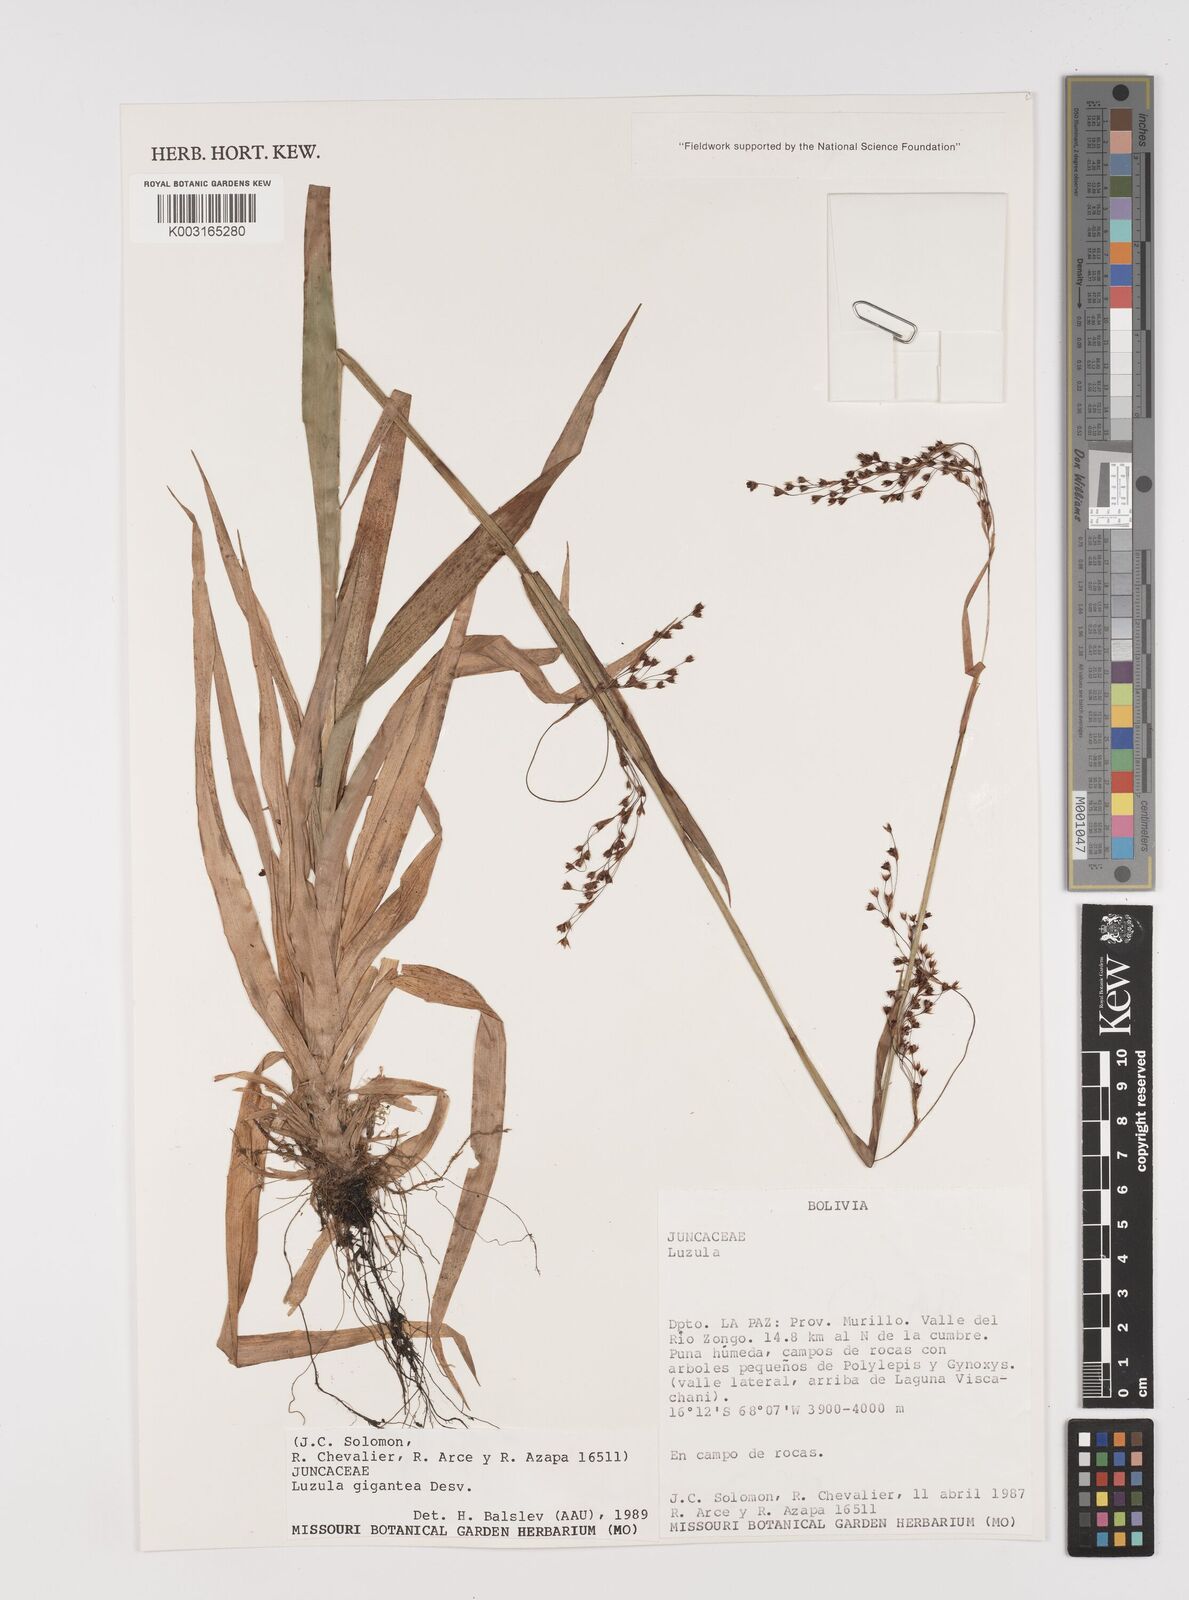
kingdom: Plantae
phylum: Tracheophyta
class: Liliopsida
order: Poales
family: Juncaceae
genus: Luzula
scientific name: Luzula gigantea
